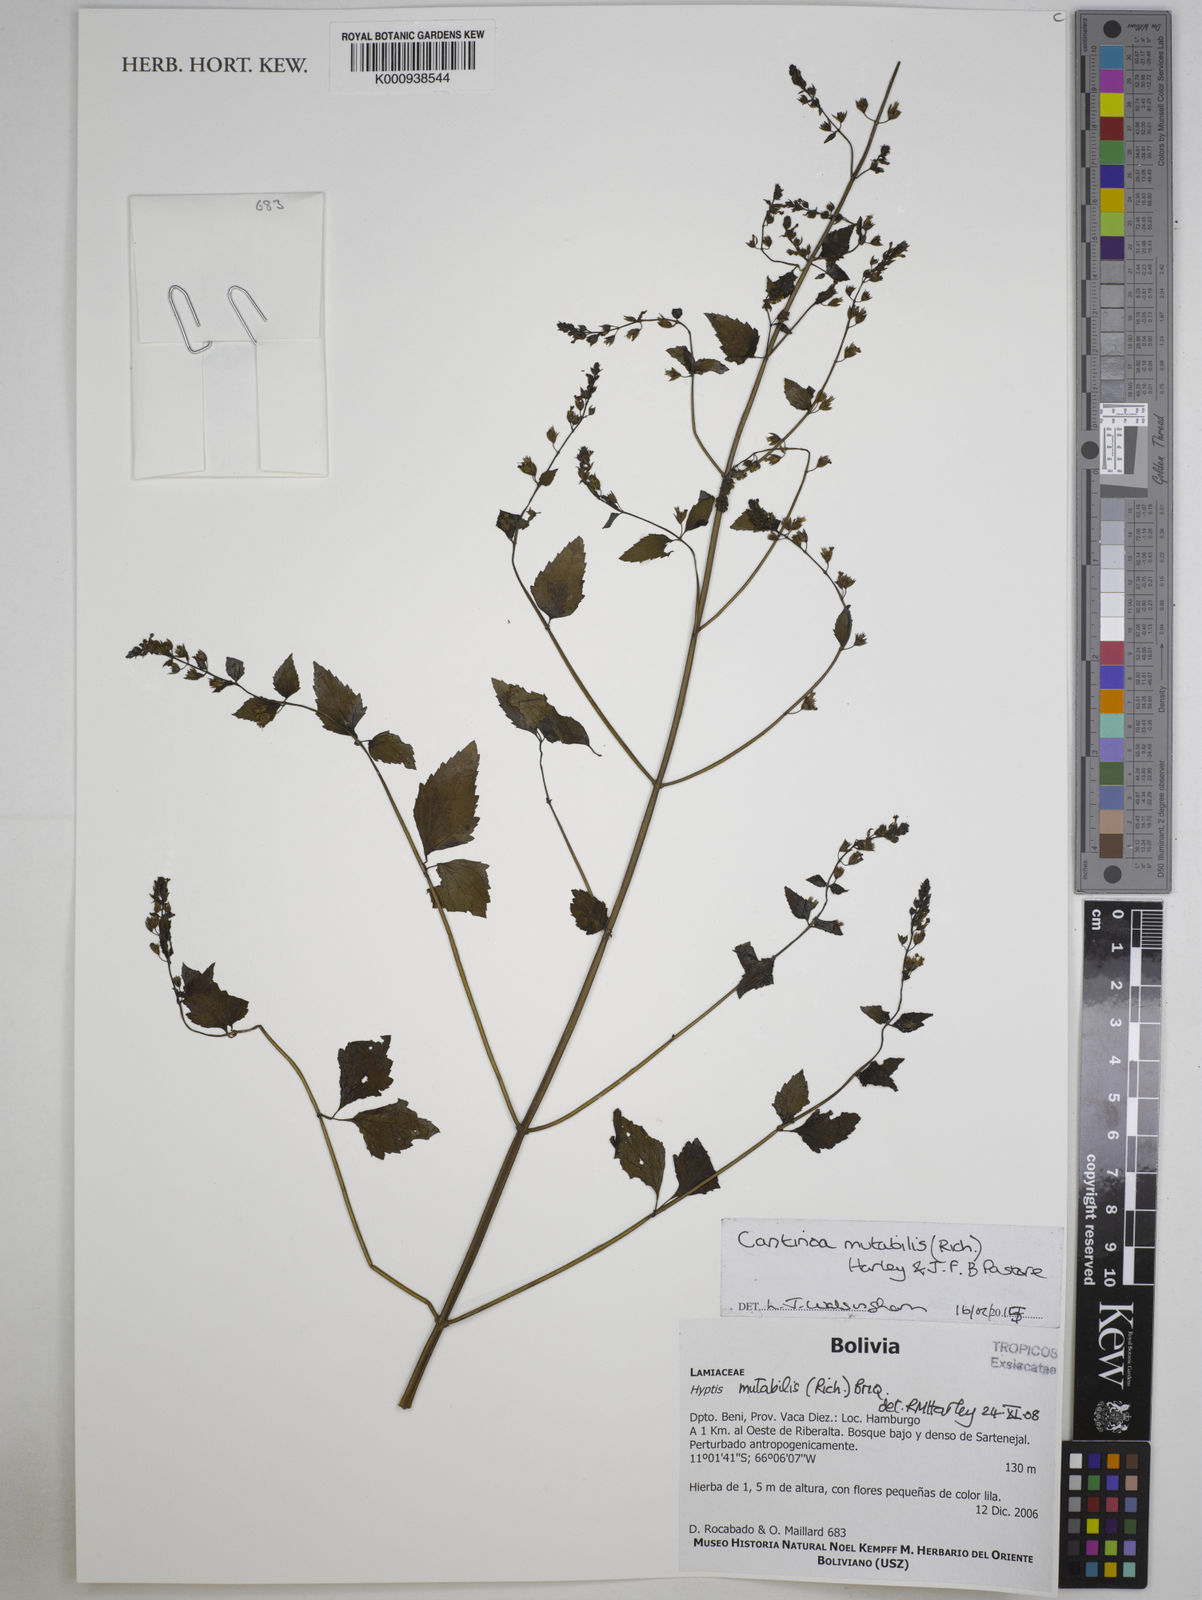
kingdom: Plantae
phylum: Tracheophyta
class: Magnoliopsida
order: Lamiales
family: Lamiaceae
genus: Cantinoa
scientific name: Cantinoa mutabilis
